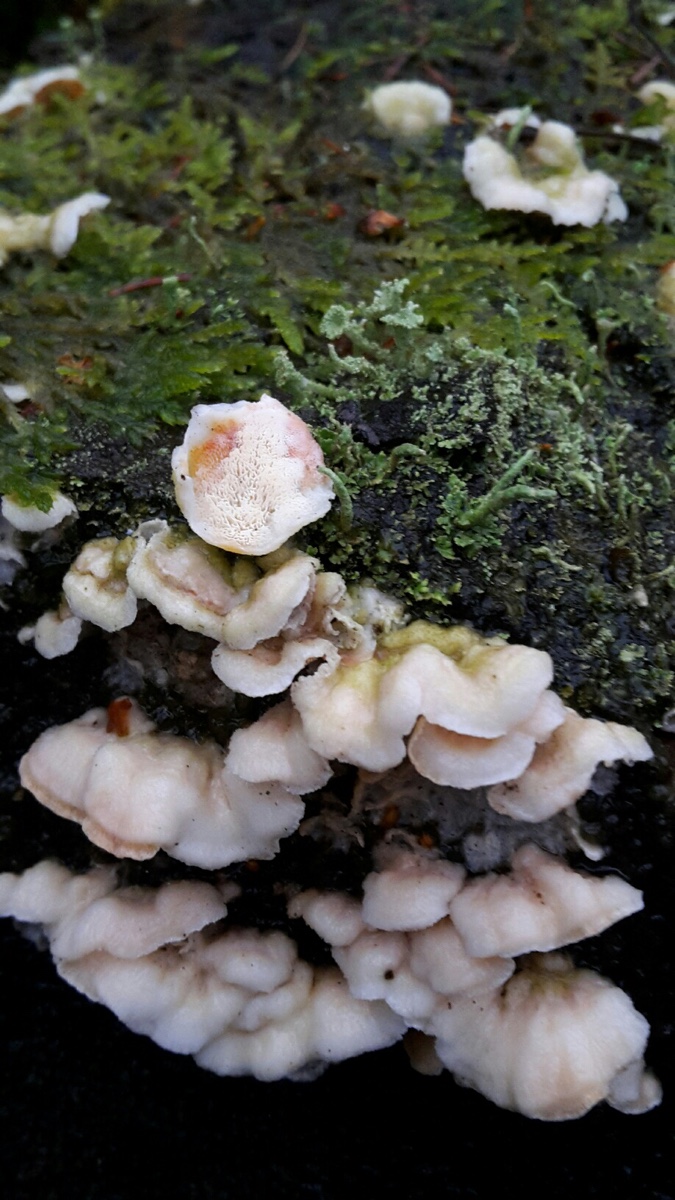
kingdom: Fungi
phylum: Basidiomycota
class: Agaricomycetes
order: Polyporales
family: Incrustoporiaceae
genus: Skeletocutis
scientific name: Skeletocutis amorpha
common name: orange krystalporesvamp
